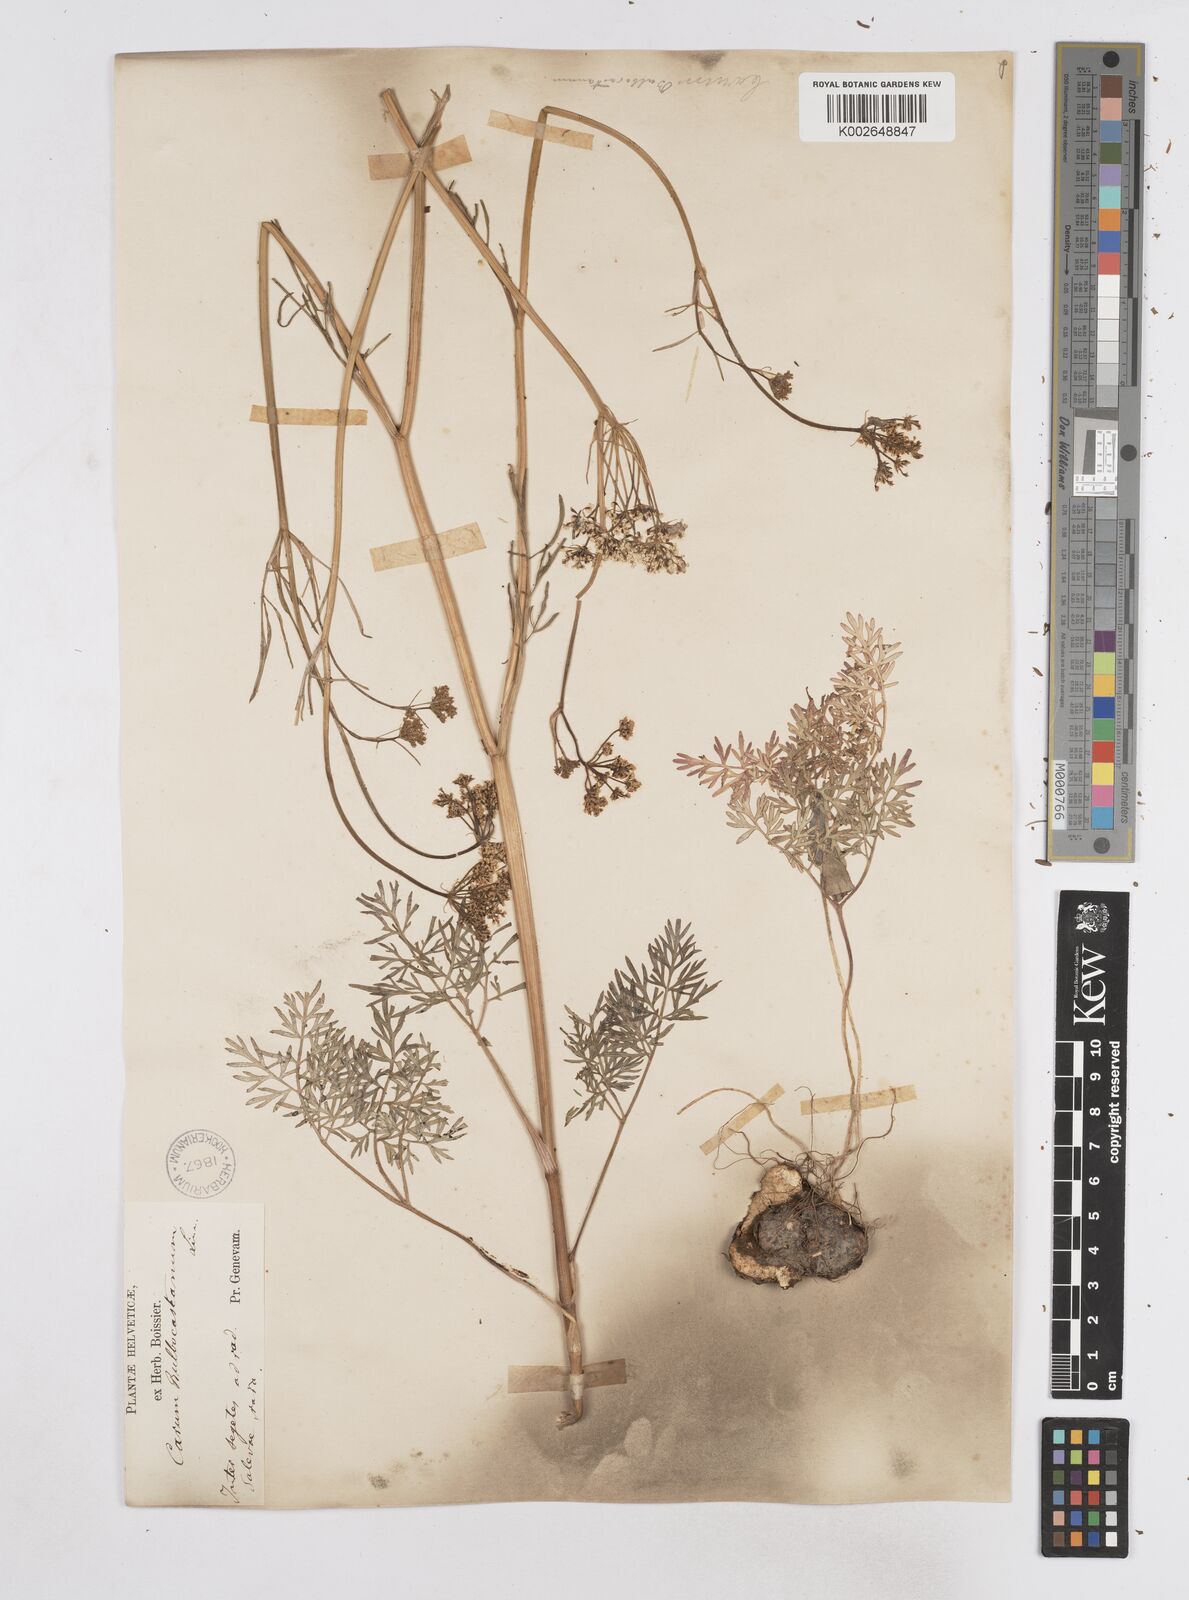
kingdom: Plantae
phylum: Tracheophyta
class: Magnoliopsida
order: Apiales
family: Apiaceae
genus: Bunium
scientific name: Bunium bulbocastanum
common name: Great pignut
